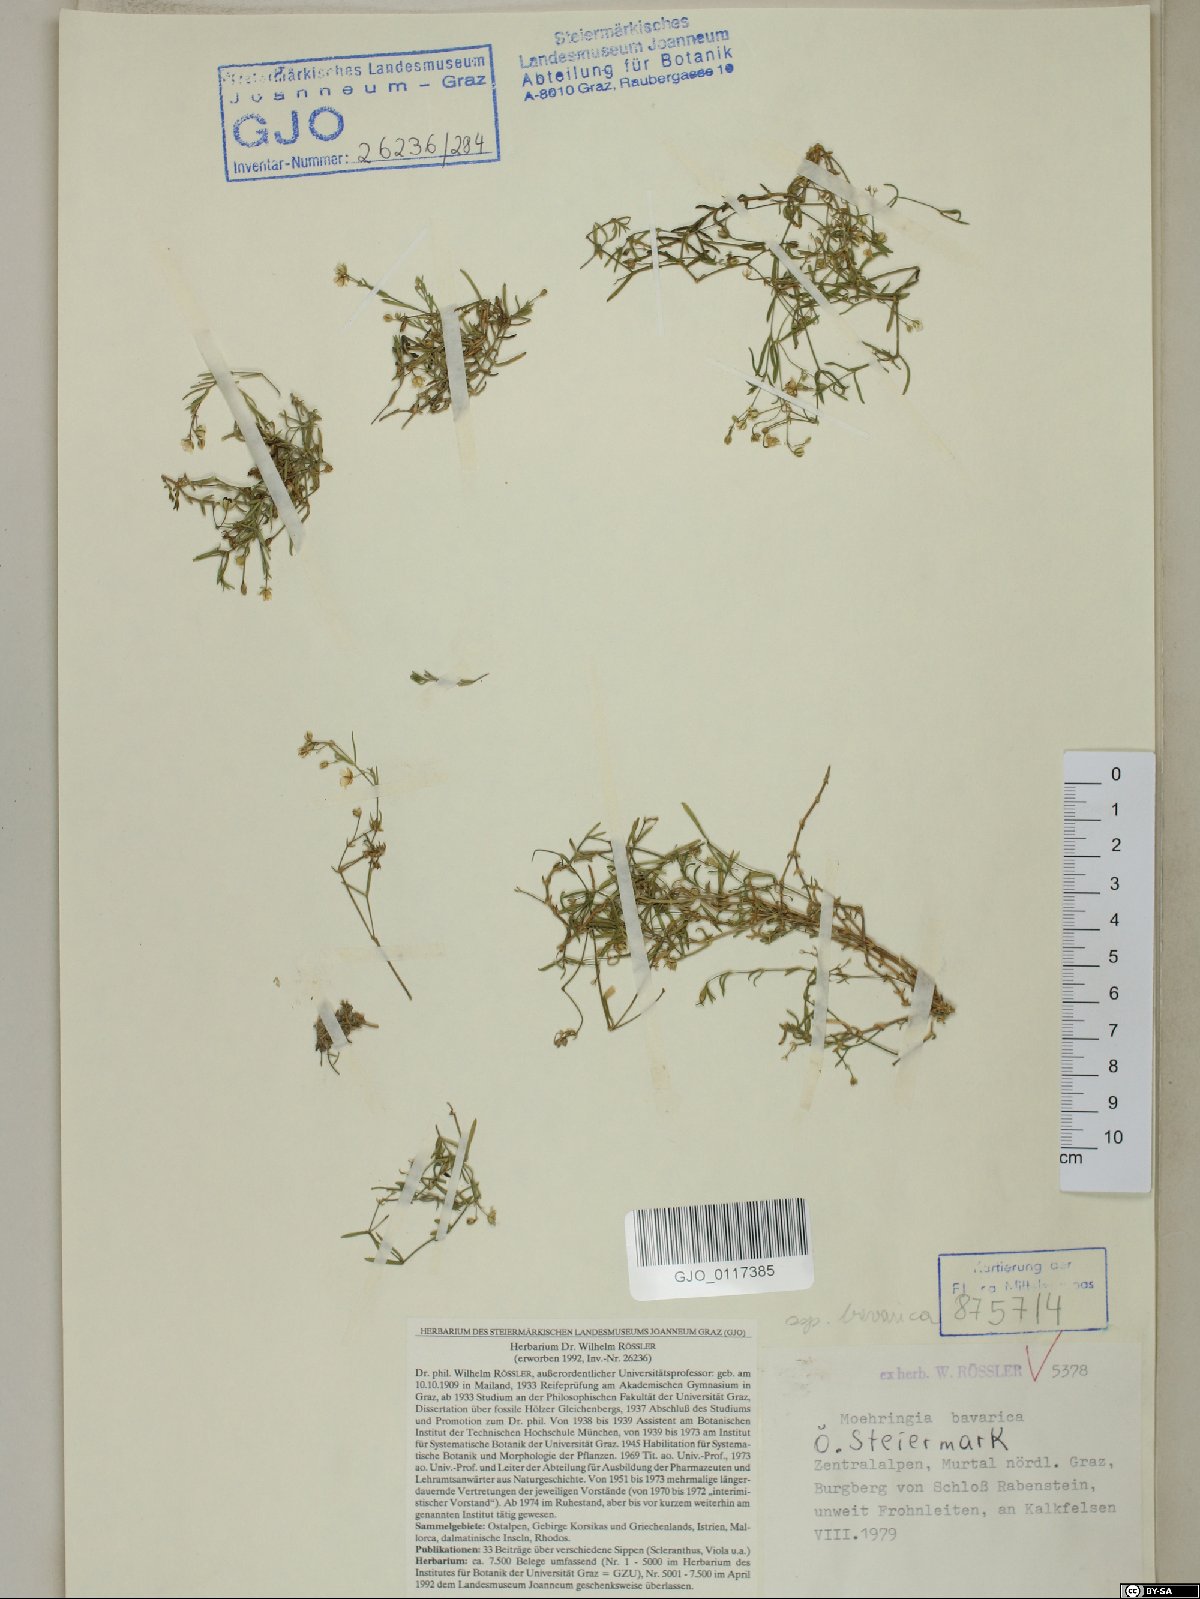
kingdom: Plantae
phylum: Tracheophyta
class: Magnoliopsida
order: Caryophyllales
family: Caryophyllaceae
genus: Moehringia
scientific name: Moehringia bavarica
